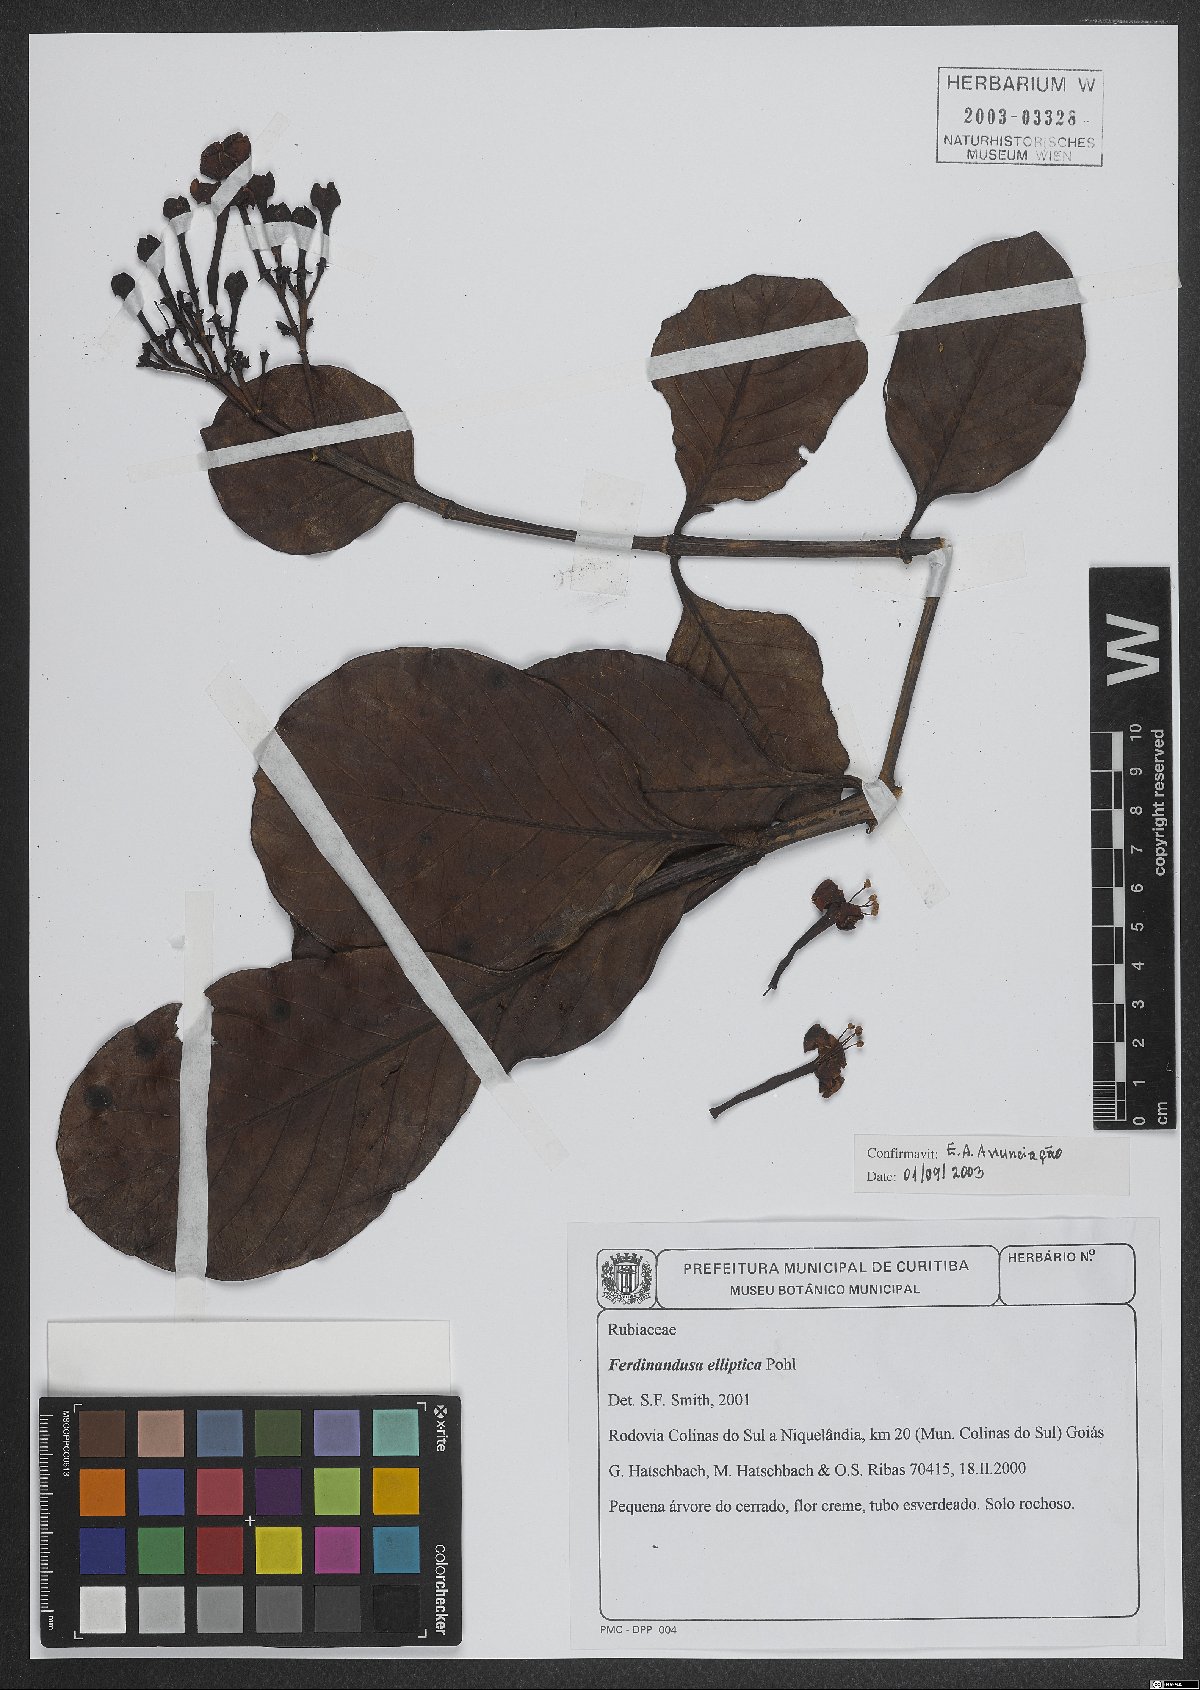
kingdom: Plantae
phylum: Tracheophyta
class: Magnoliopsida
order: Gentianales
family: Rubiaceae
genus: Ferdinandusa
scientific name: Ferdinandusa elliptica
